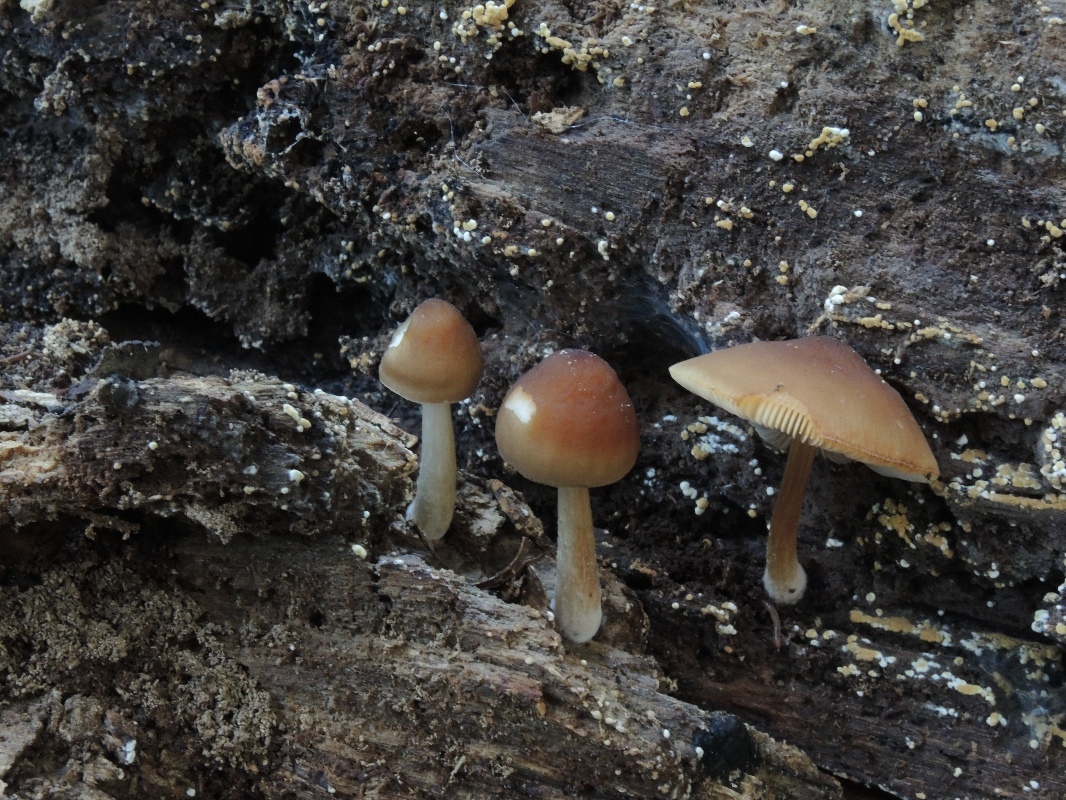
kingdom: Fungi
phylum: Basidiomycota
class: Agaricomycetes
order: Agaricales
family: Pluteaceae
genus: Pluteus
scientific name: Pluteus phlebophorus
